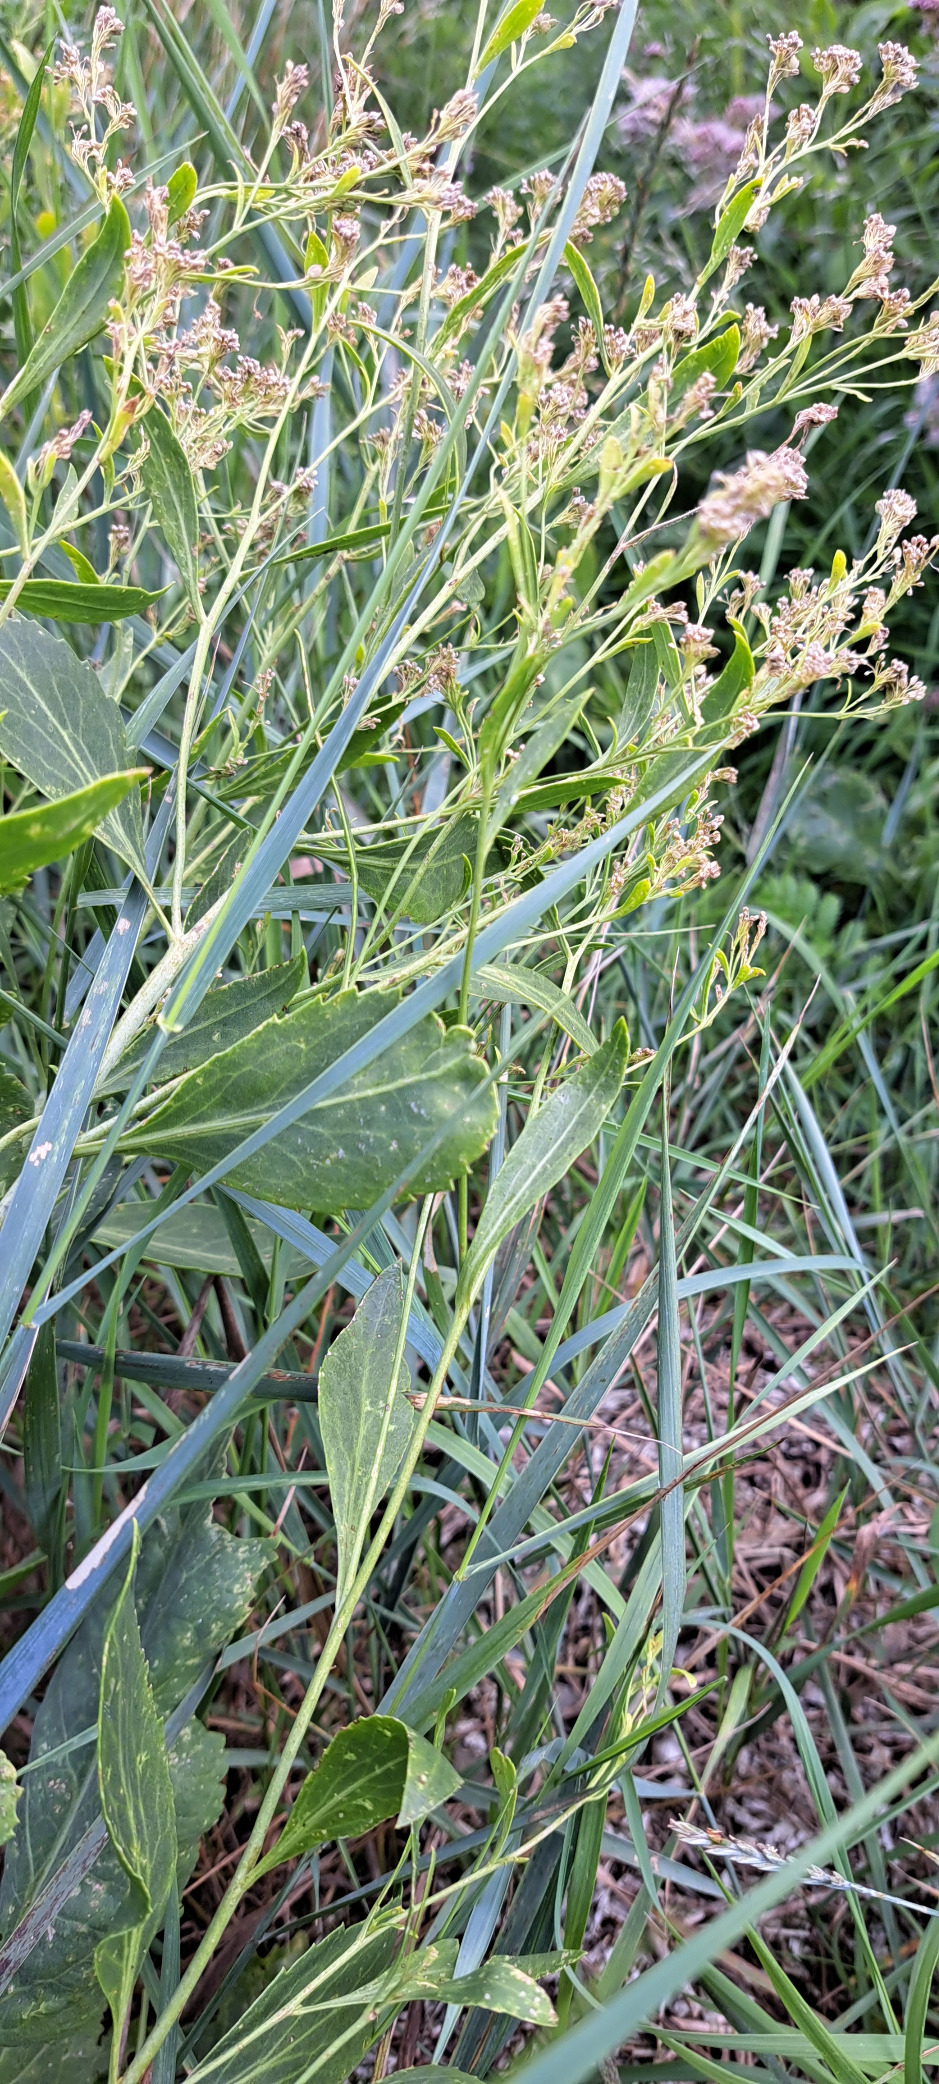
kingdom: Plantae
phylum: Tracheophyta
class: Magnoliopsida
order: Brassicales
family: Brassicaceae
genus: Lepidium
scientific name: Lepidium latifolium
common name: Strand-karse
